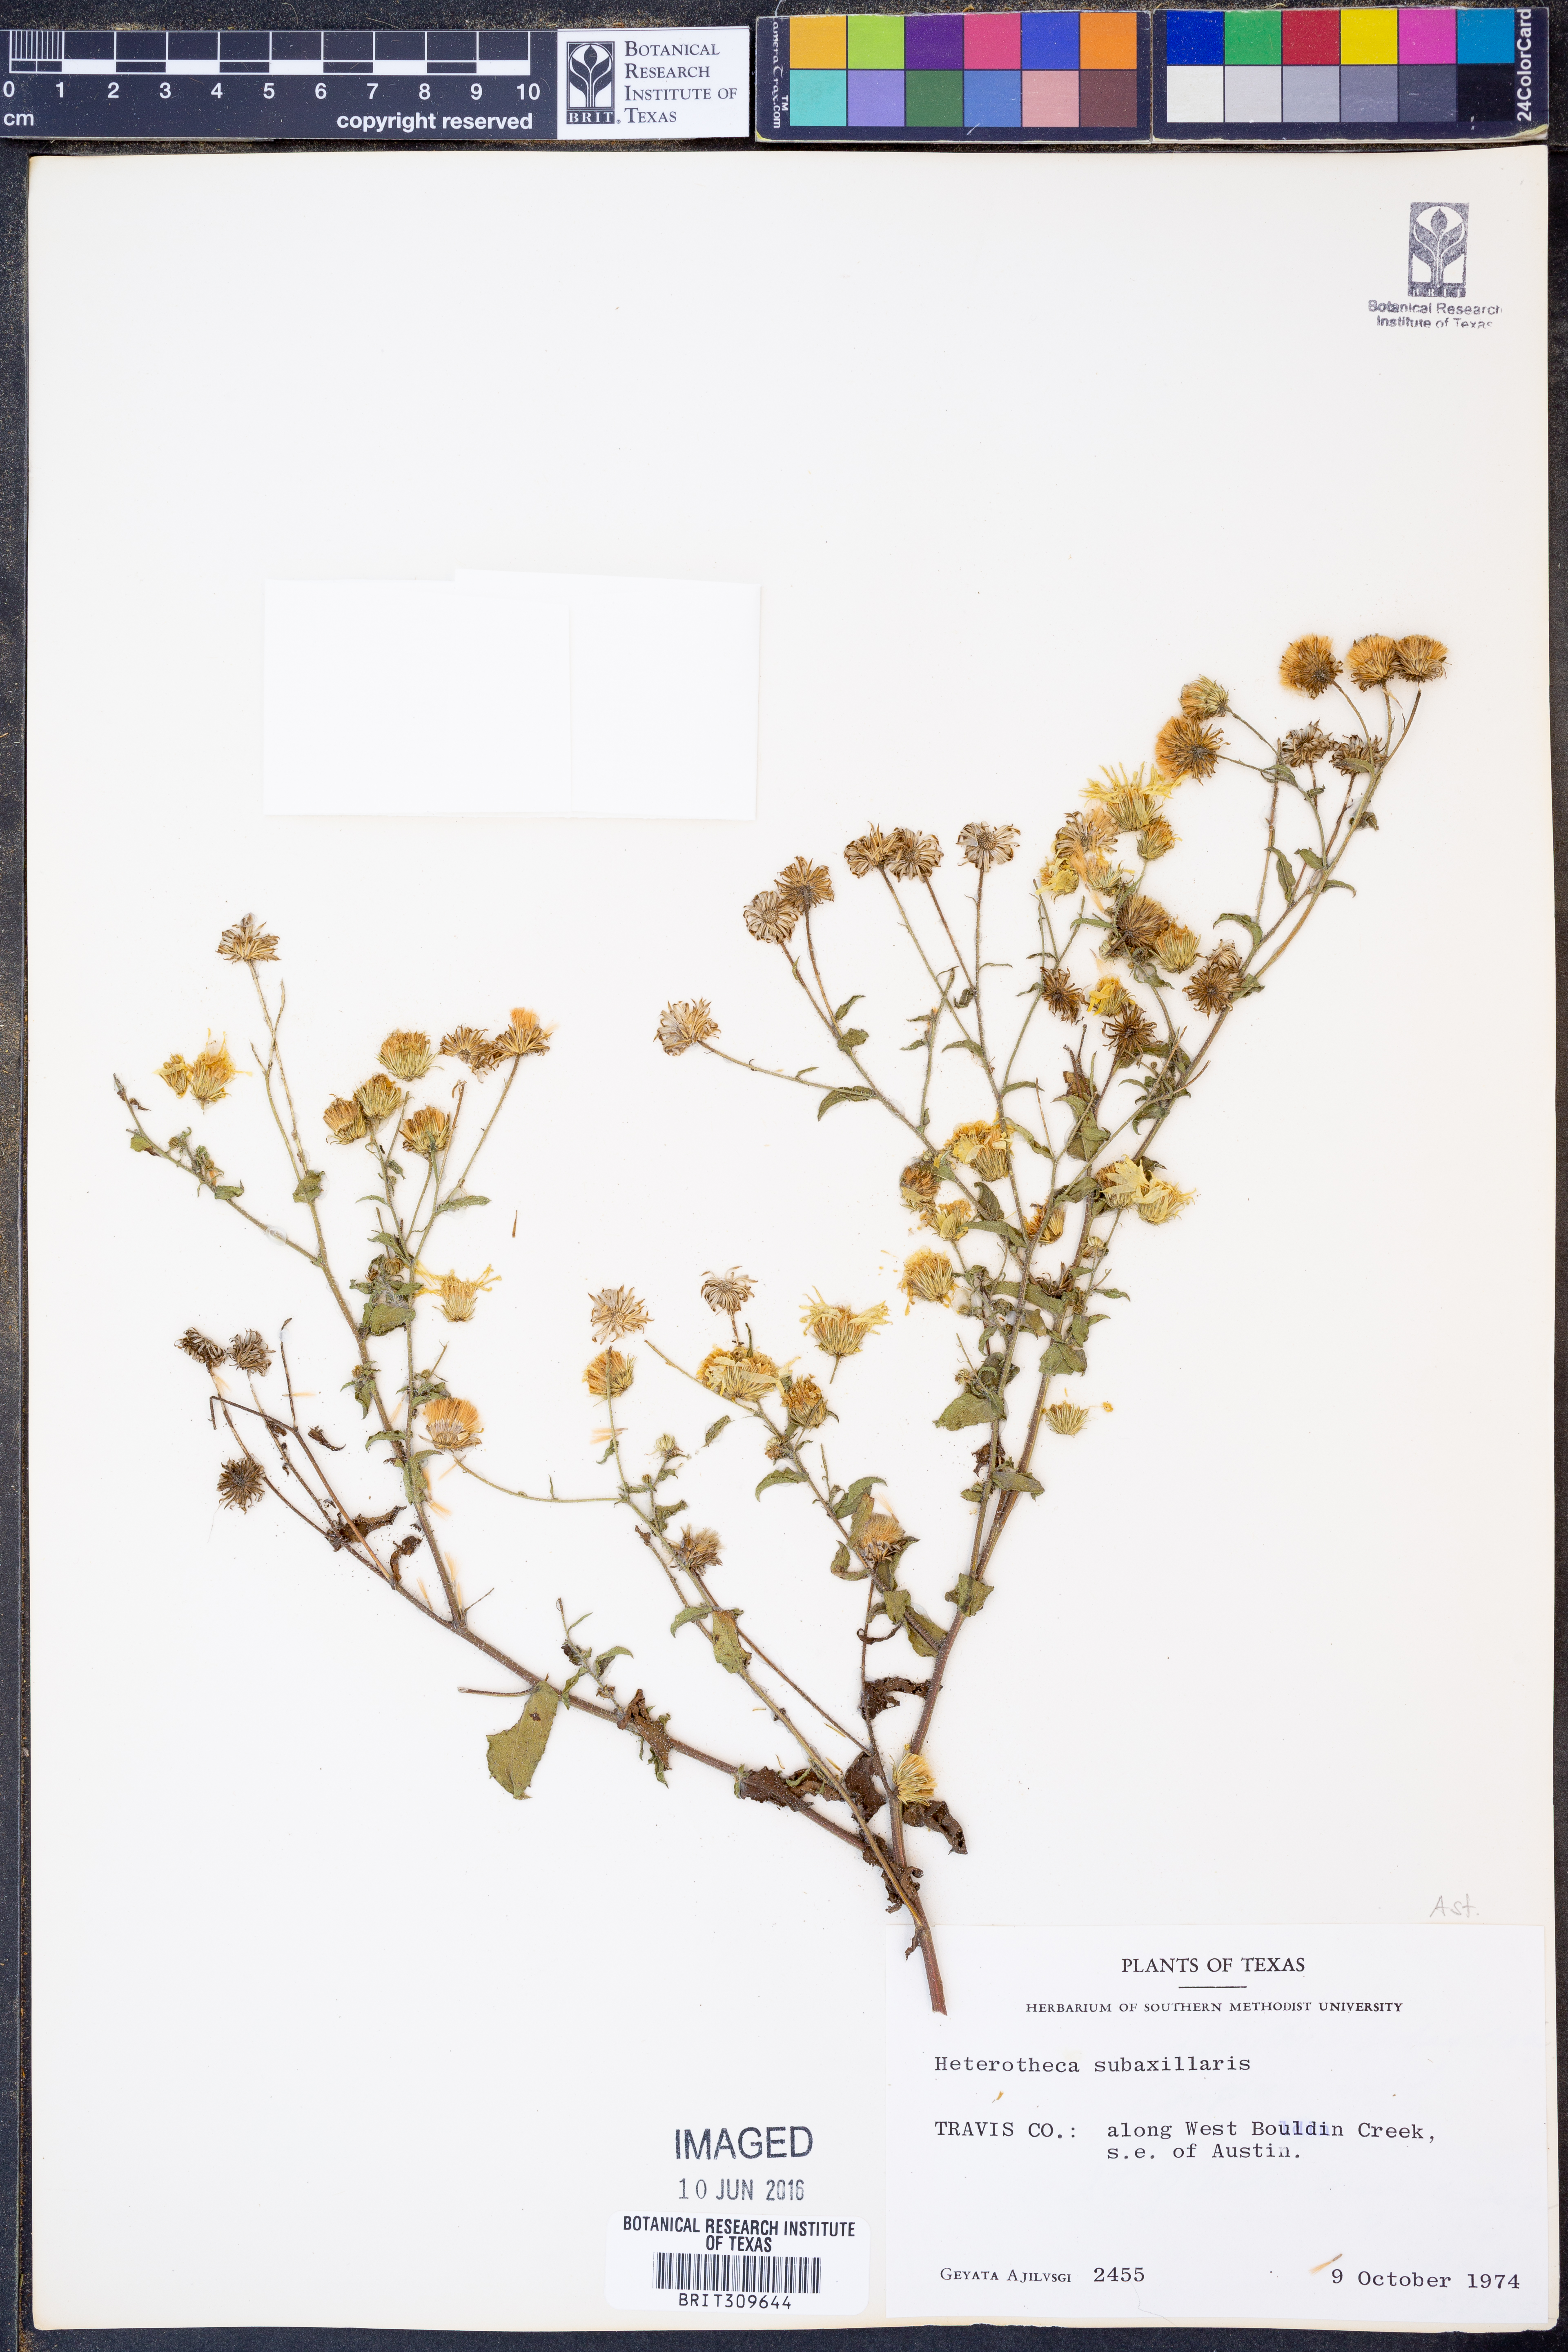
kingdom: Plantae
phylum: Tracheophyta
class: Magnoliopsida
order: Asterales
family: Asteraceae
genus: Heterotheca
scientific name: Heterotheca subaxillaris
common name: Camphorweed
